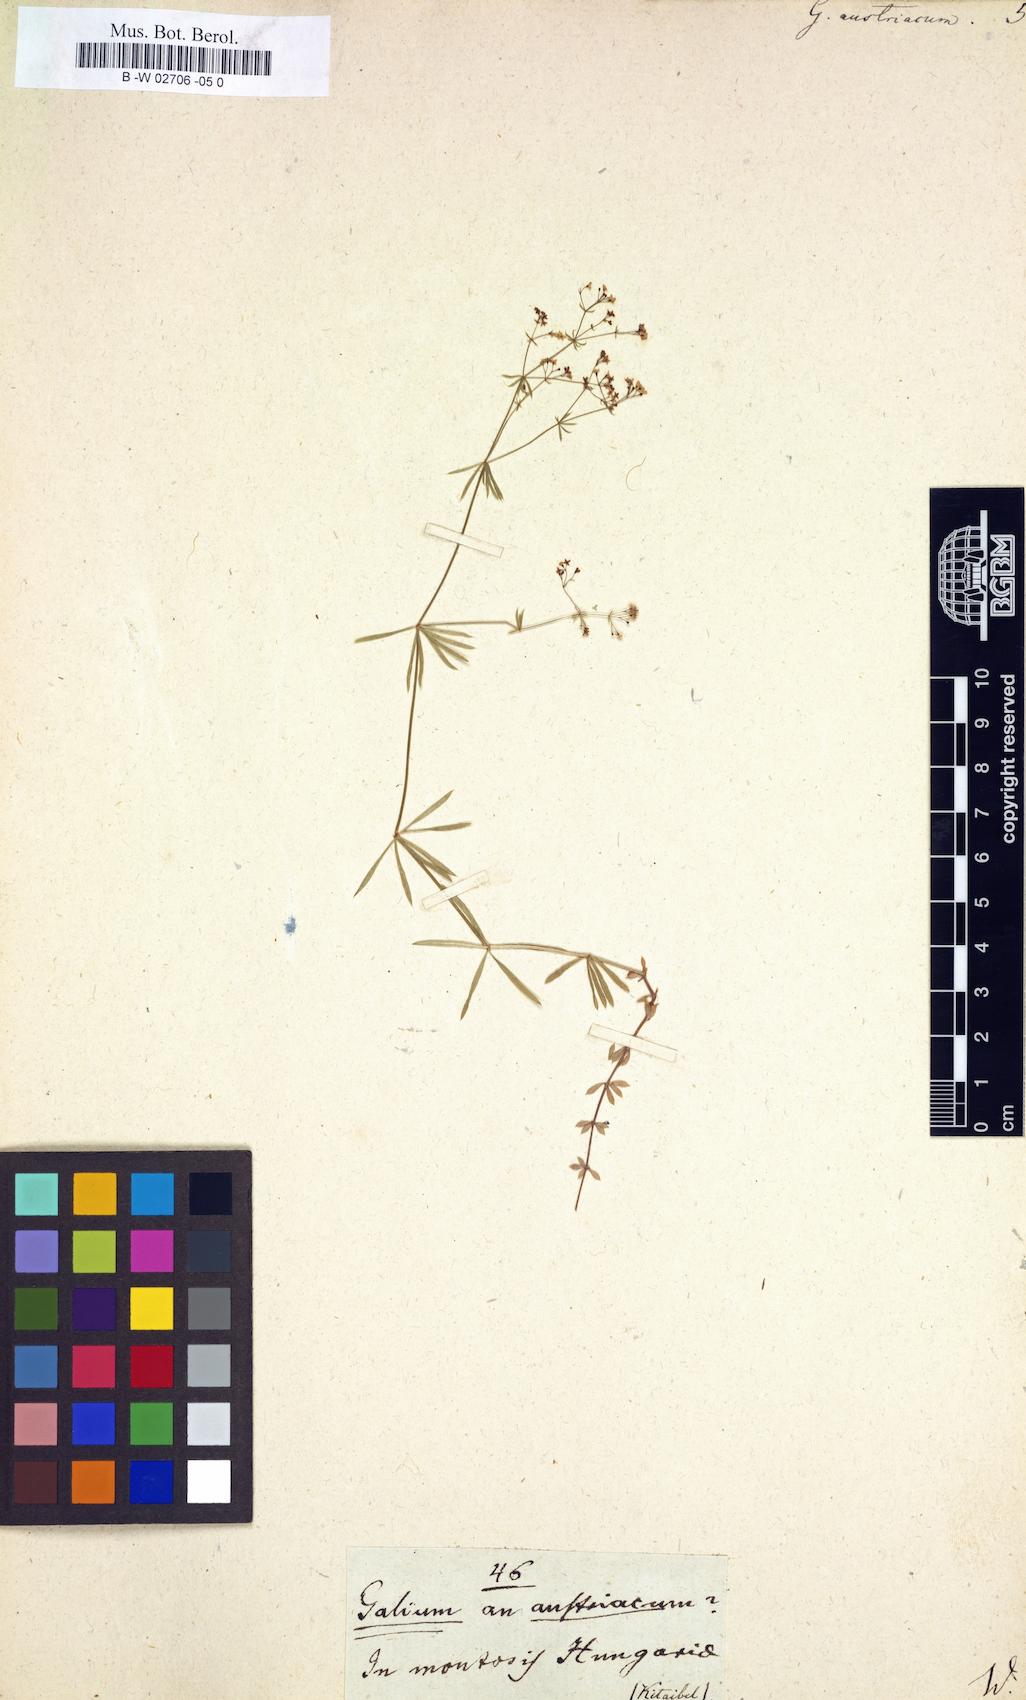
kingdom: Plantae
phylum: Tracheophyta
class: Magnoliopsida
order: Gentianales
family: Rubiaceae
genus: Galium
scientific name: Galium austriacum
